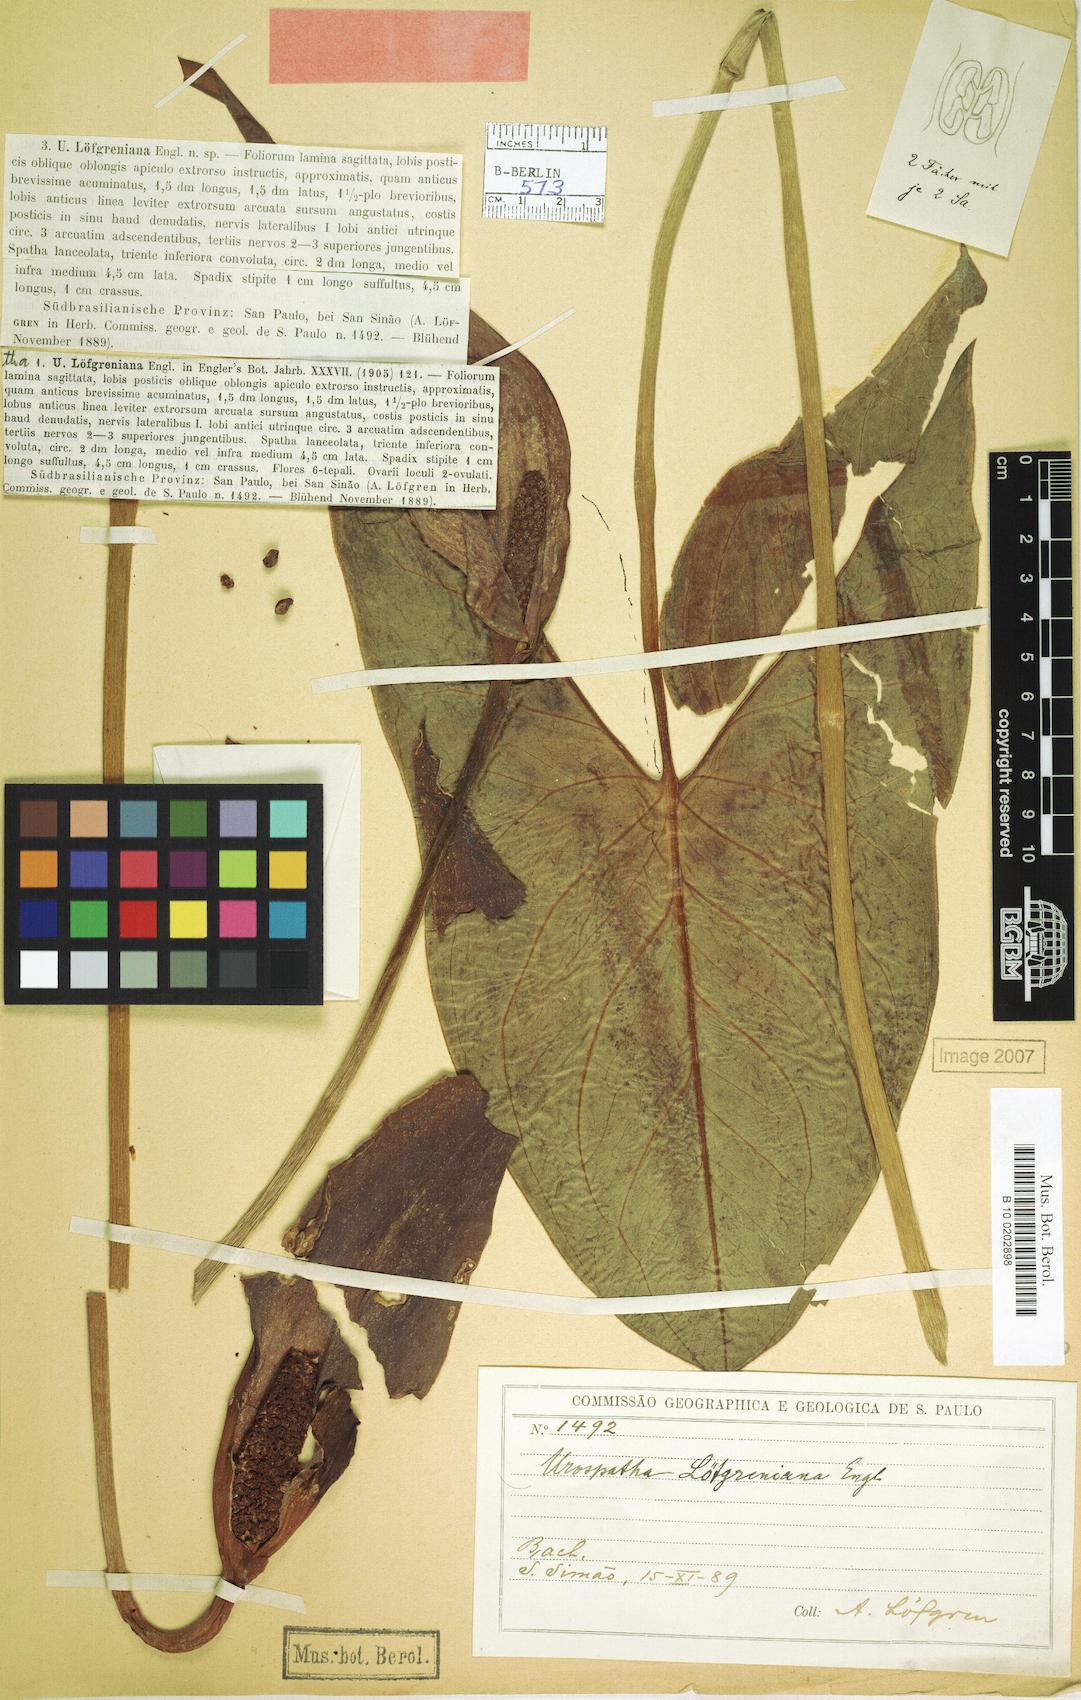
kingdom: Plantae
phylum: Tracheophyta
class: Liliopsida
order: Alismatales
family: Araceae
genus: Urospatha
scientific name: Urospatha loefgreniana
